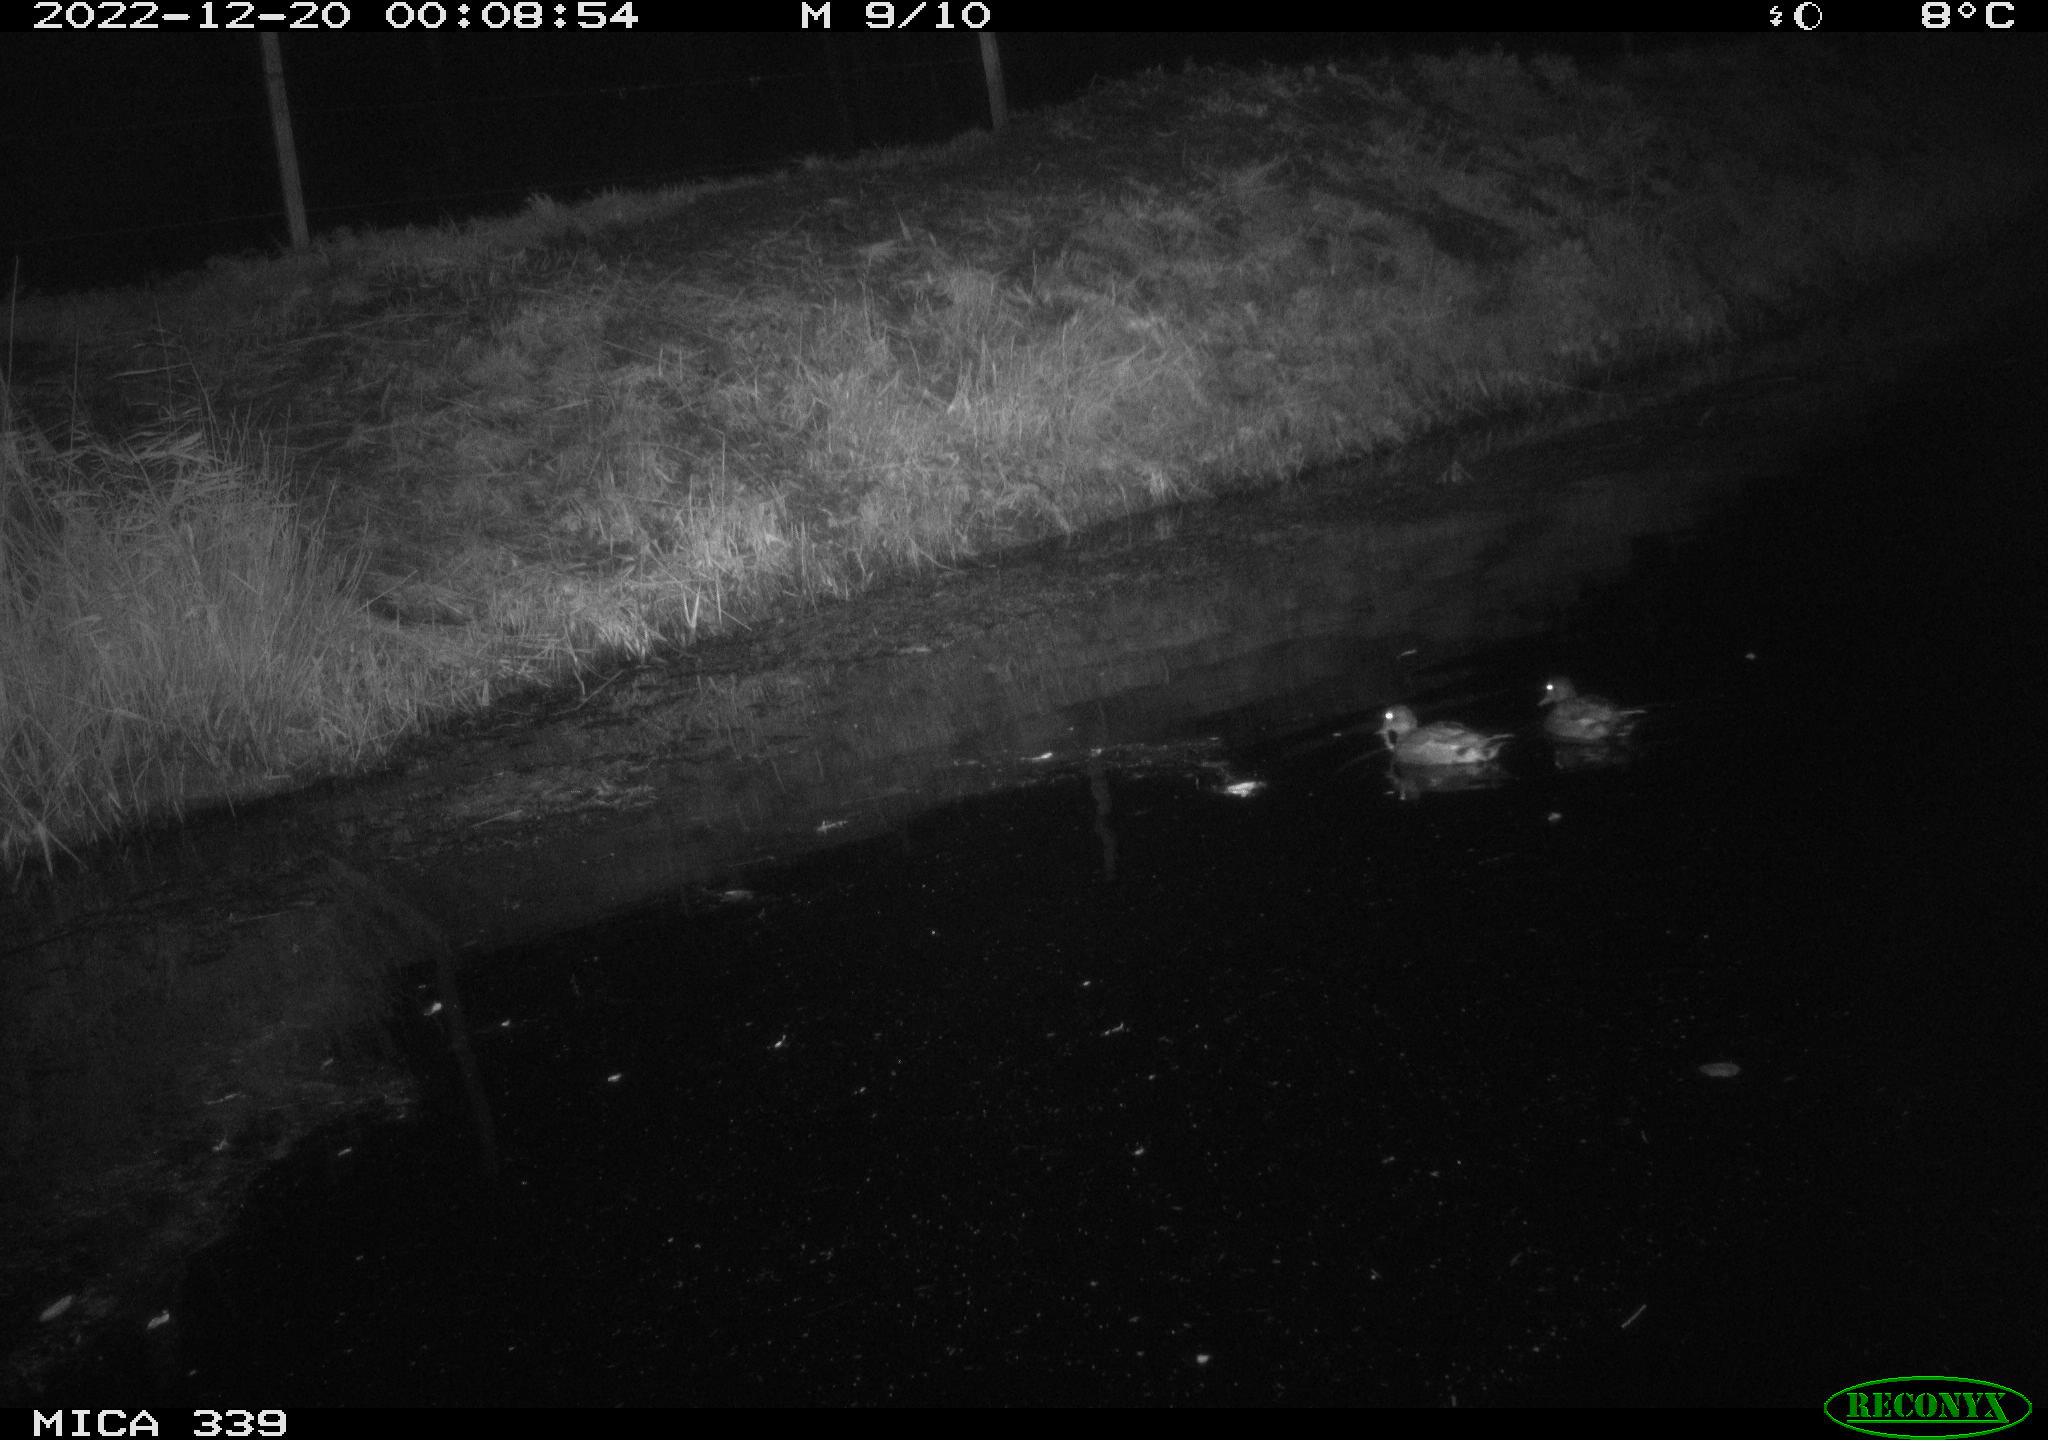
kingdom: Animalia
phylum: Chordata
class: Aves
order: Anseriformes
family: Anatidae
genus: Anas
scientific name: Anas
